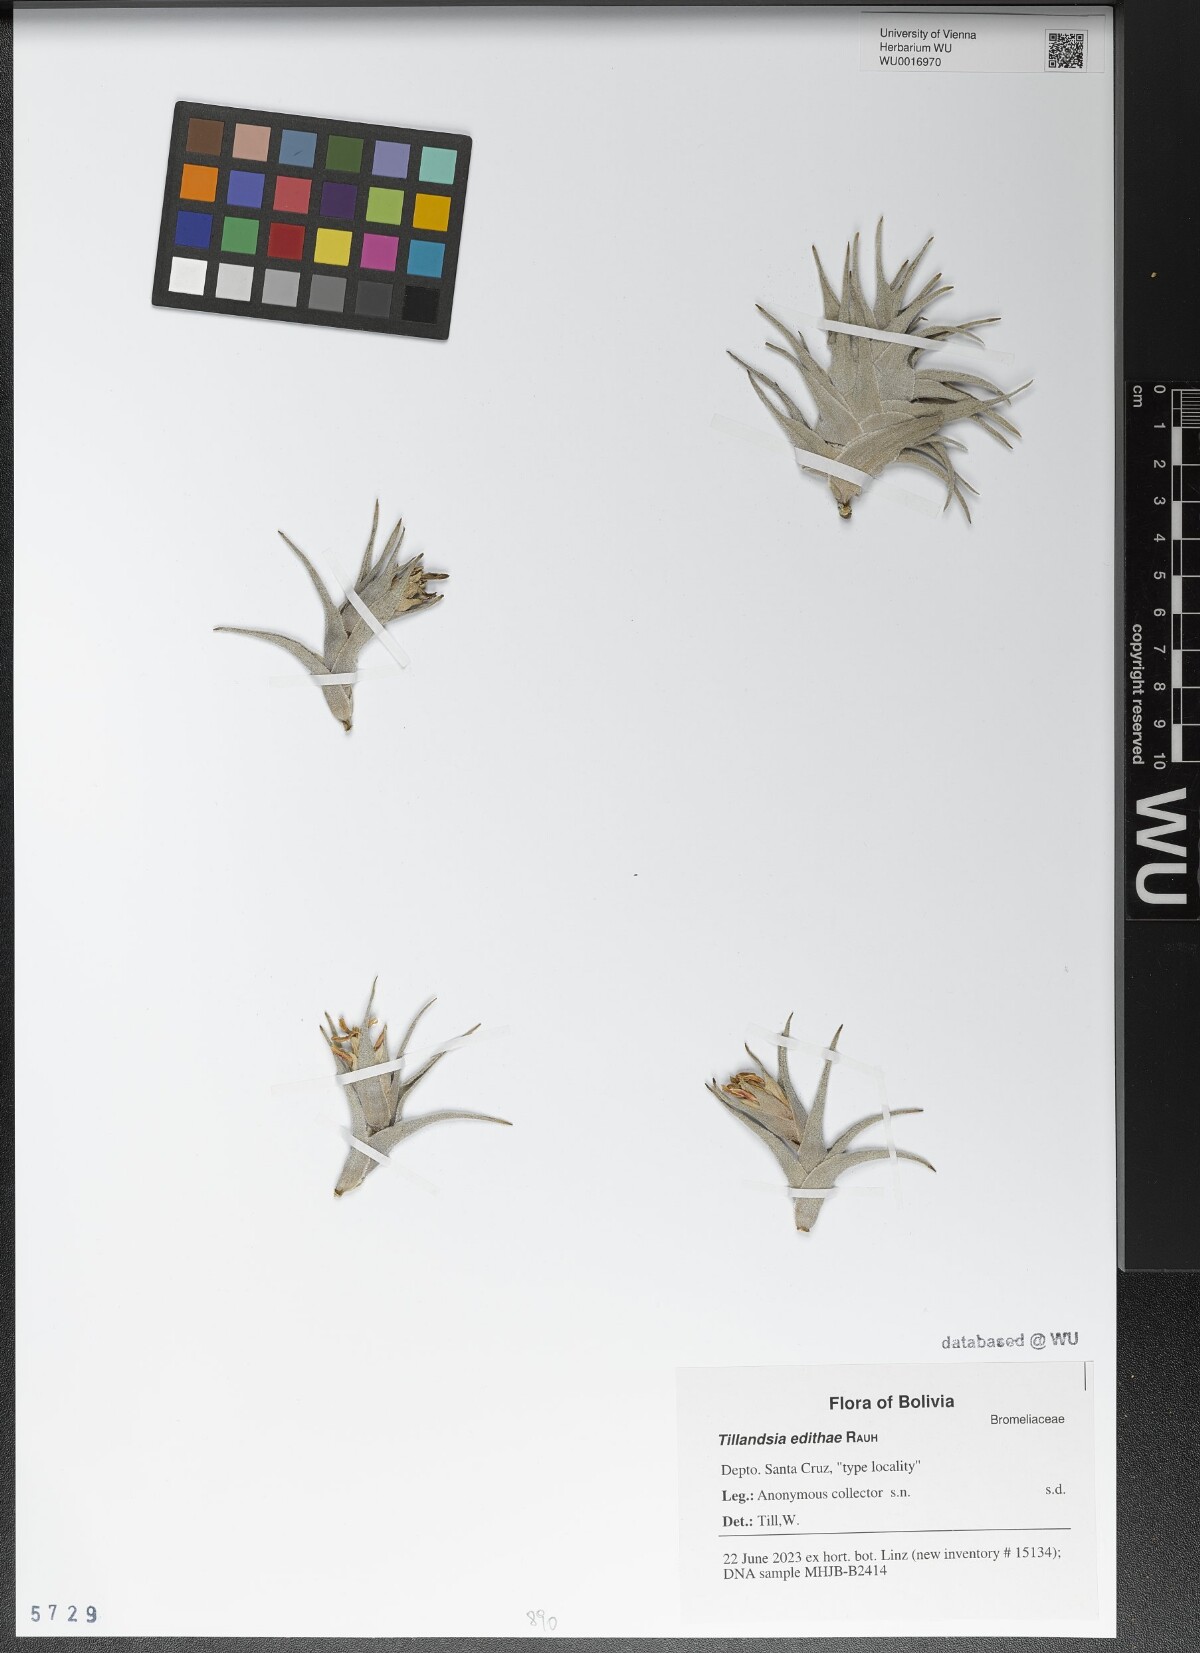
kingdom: Plantae
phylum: Tracheophyta
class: Liliopsida
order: Poales
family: Bromeliaceae
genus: Tillandsia
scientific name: Tillandsia edithae
